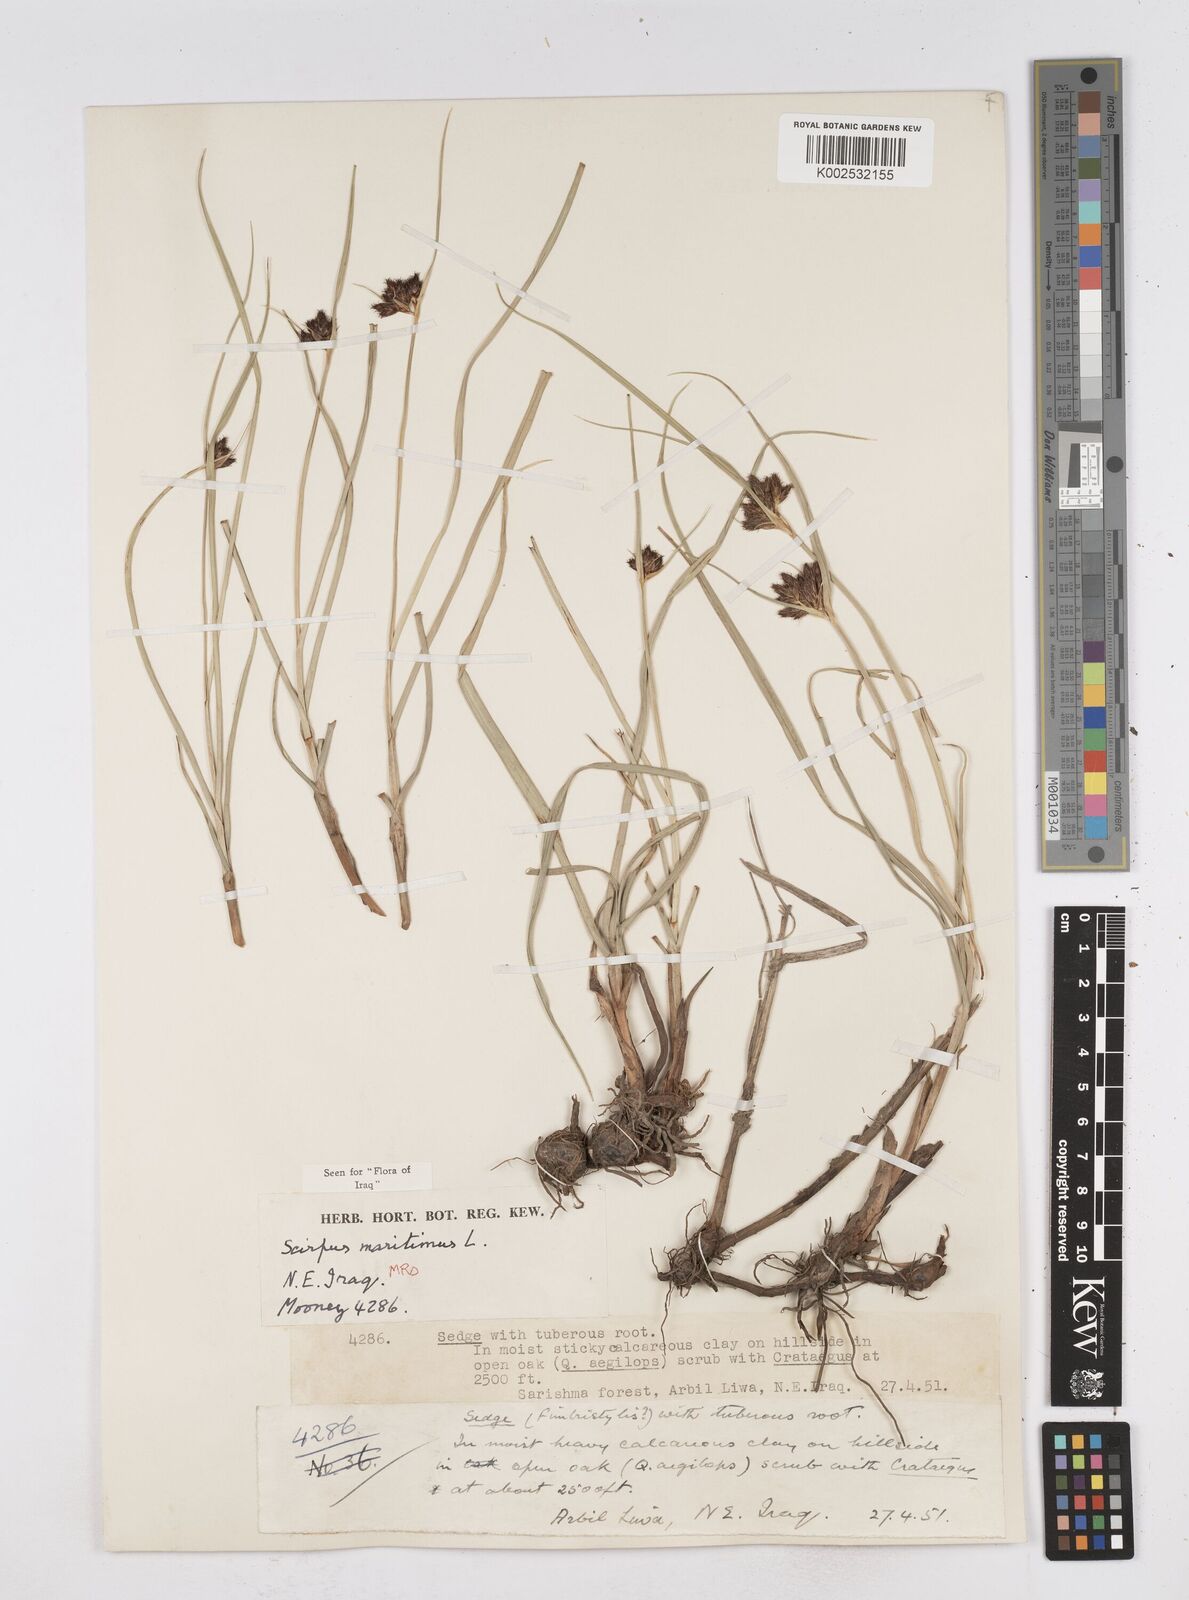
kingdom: Plantae
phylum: Tracheophyta
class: Liliopsida
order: Poales
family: Cyperaceae
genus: Bolboschoenus
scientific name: Bolboschoenus maritimus
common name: Sea club-rush
